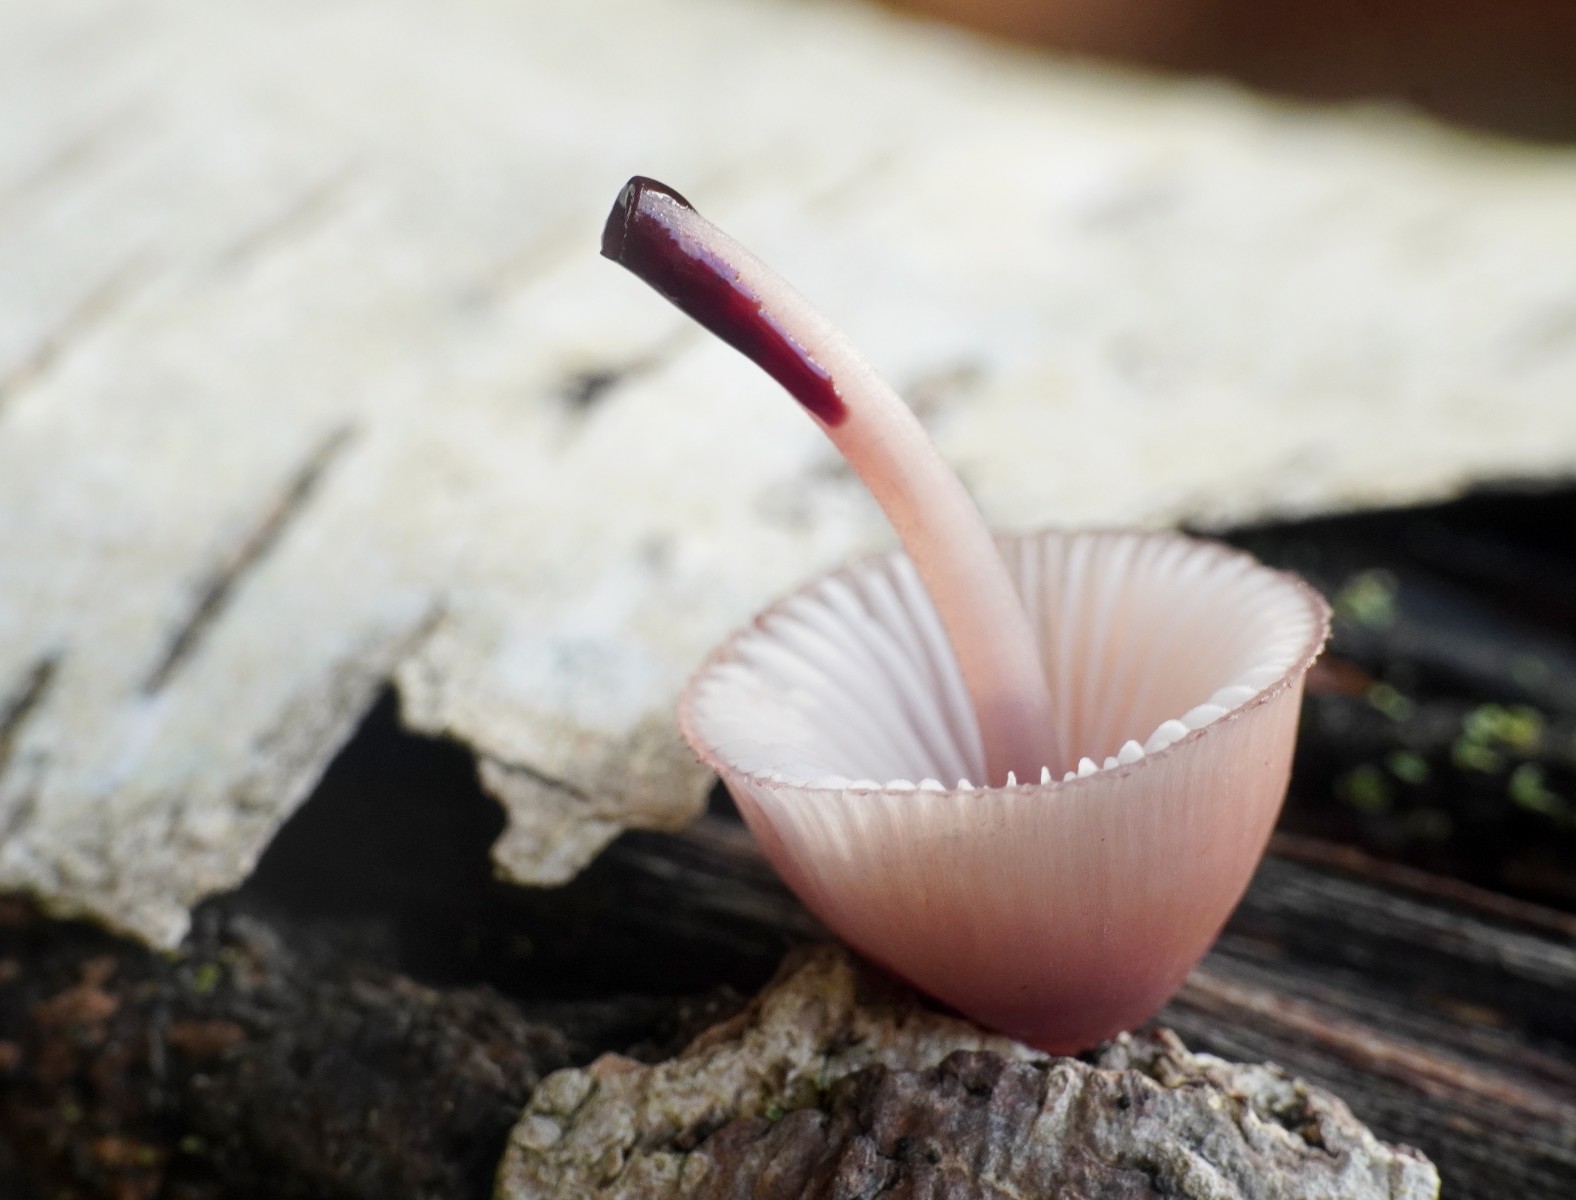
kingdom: Fungi
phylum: Basidiomycota
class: Agaricomycetes
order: Agaricales
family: Mycenaceae
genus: Mycena
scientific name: Mycena haematopus
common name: blødende huesvamp
